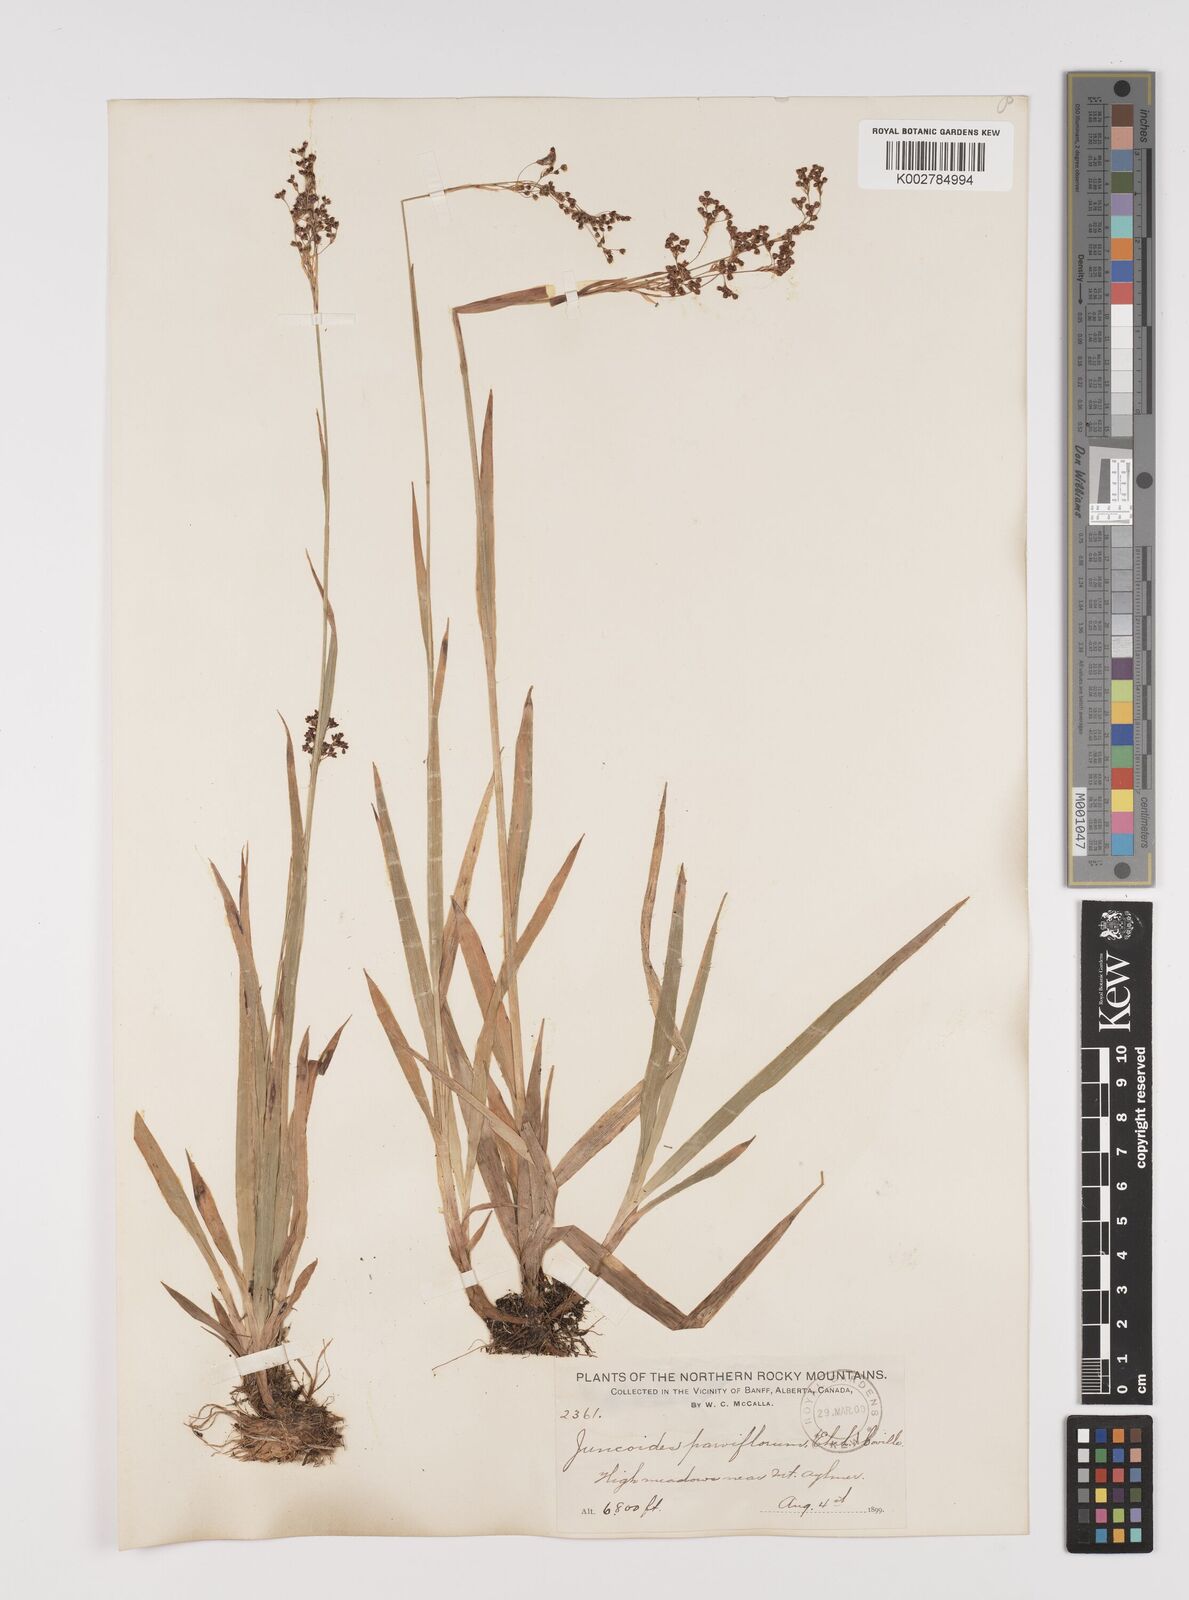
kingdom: Plantae
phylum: Tracheophyta
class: Liliopsida
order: Poales
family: Juncaceae
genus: Luzula
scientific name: Luzula parviflora
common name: Millet woodrush
